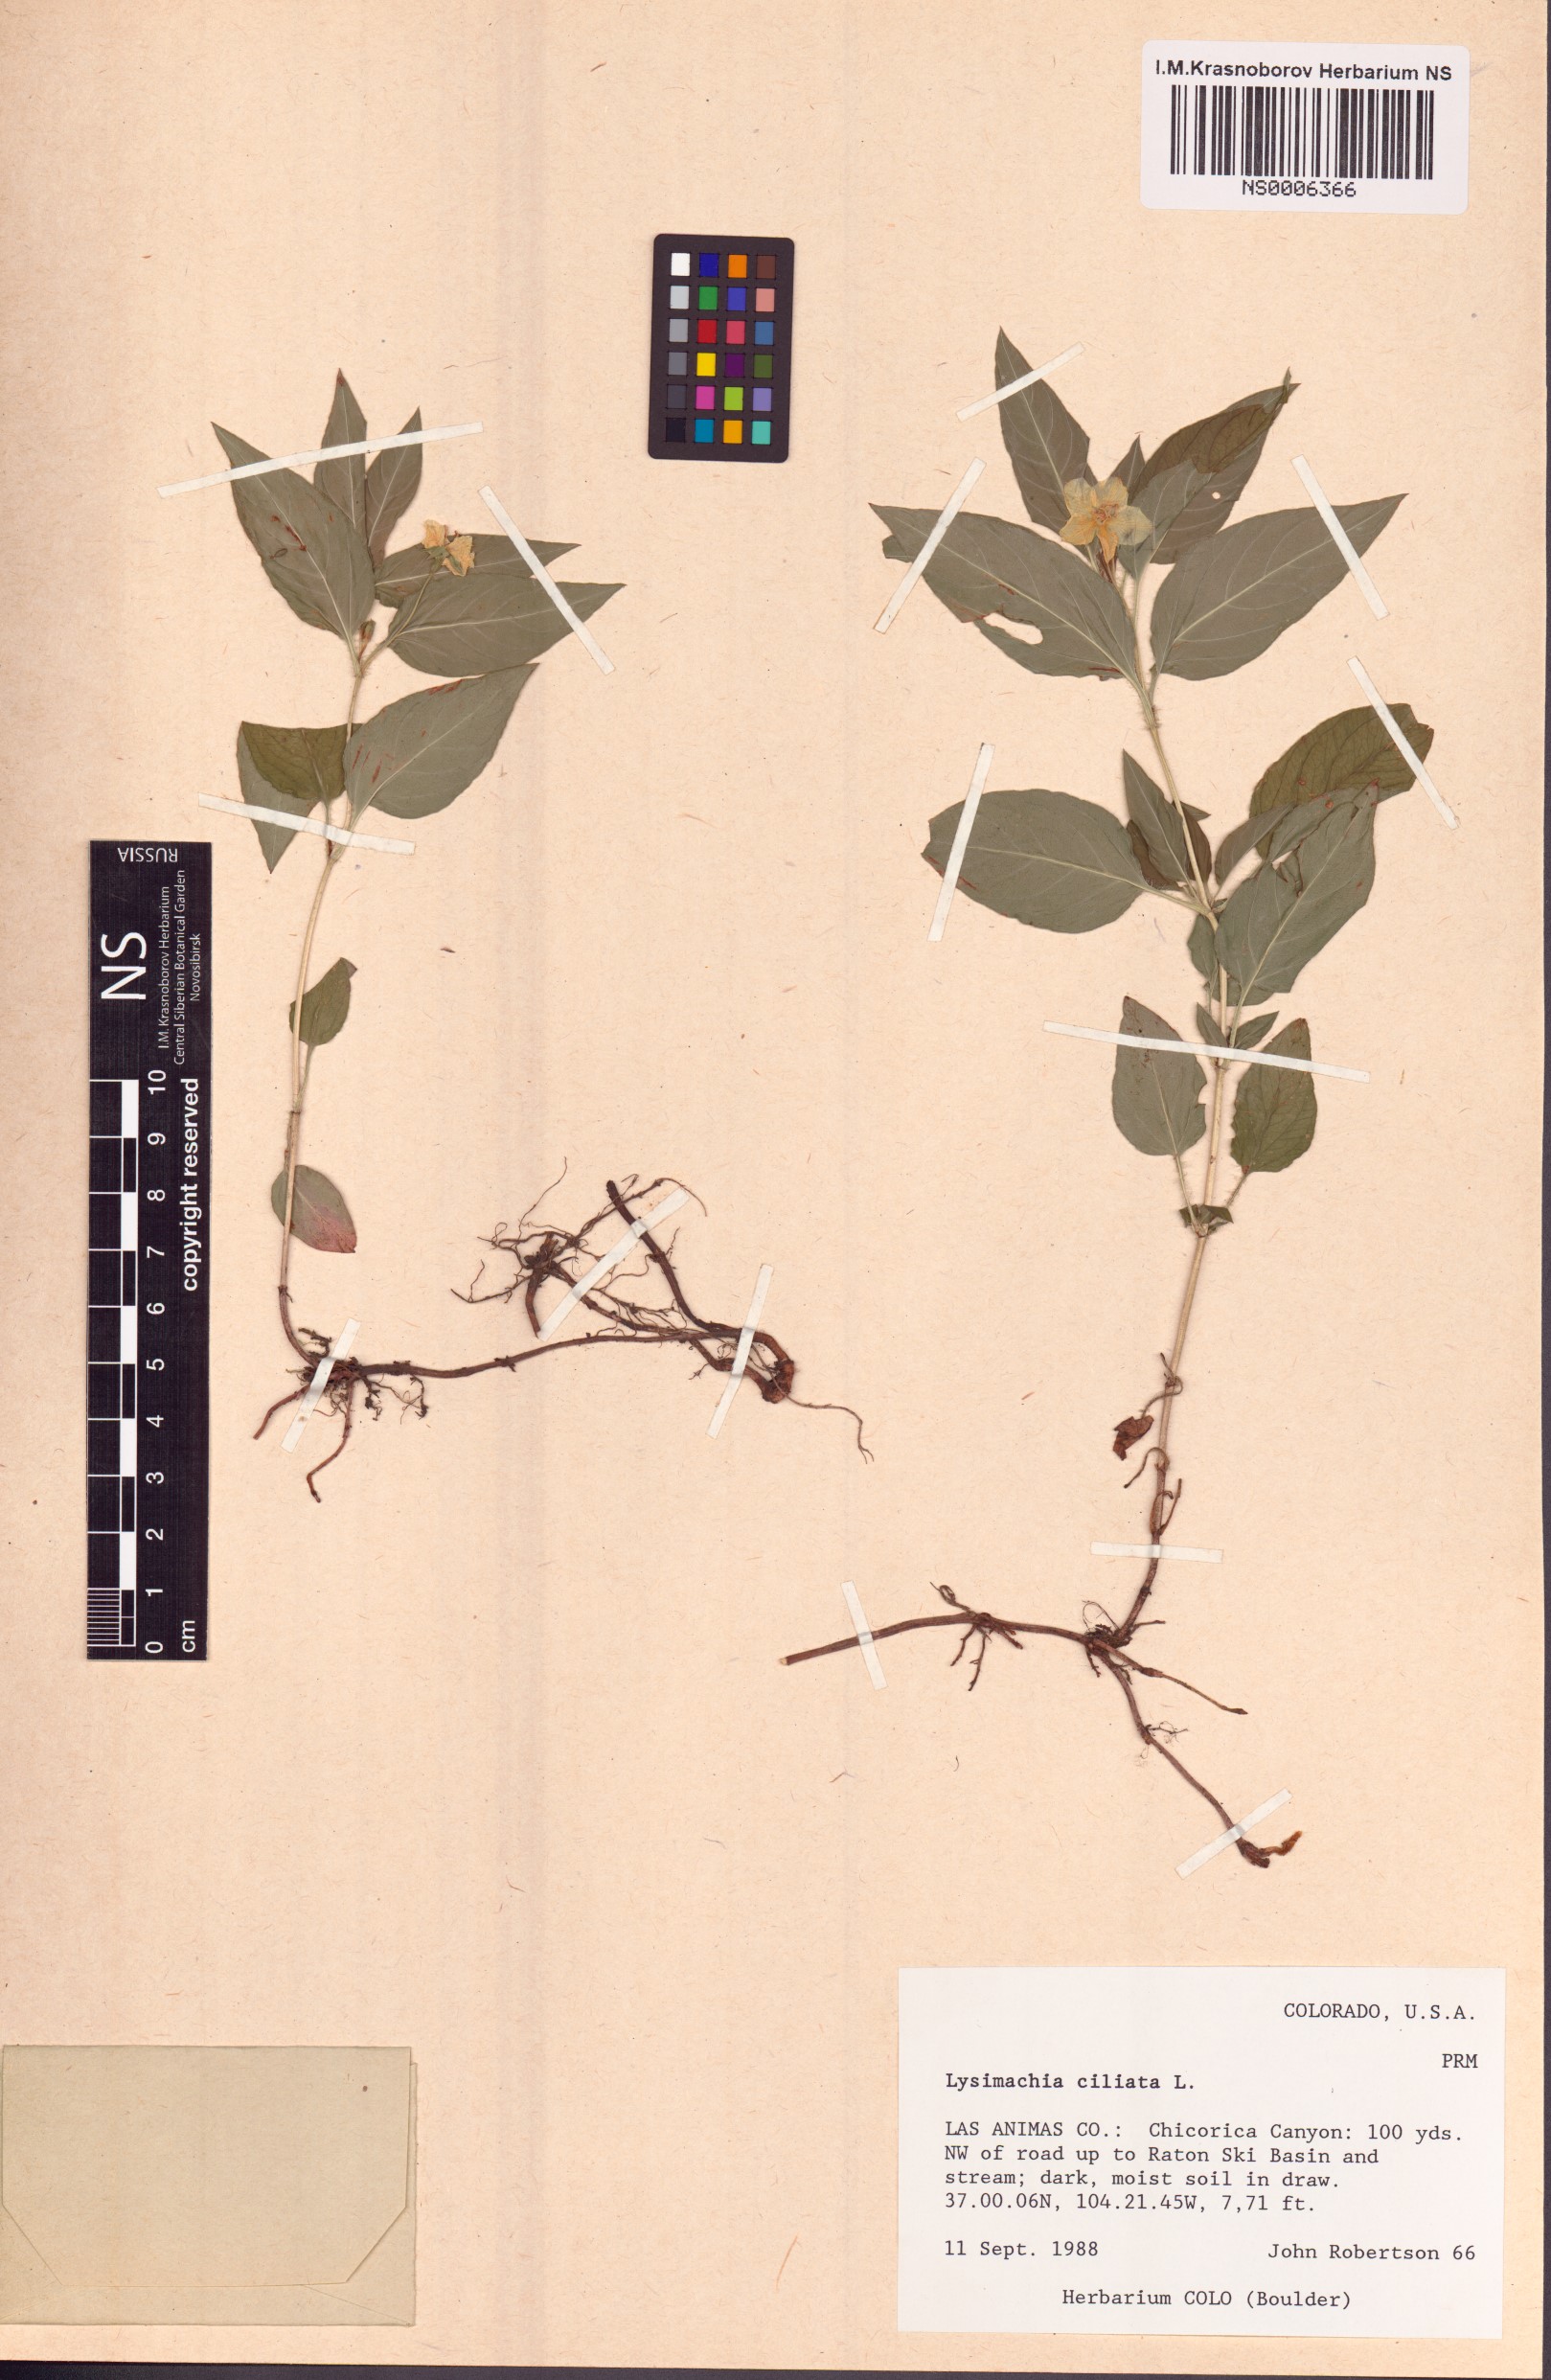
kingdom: Plantae
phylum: Tracheophyta
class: Magnoliopsida
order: Ericales
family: Primulaceae
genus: Lysimachia
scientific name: Lysimachia ciliata
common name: Fringed loosestrife
